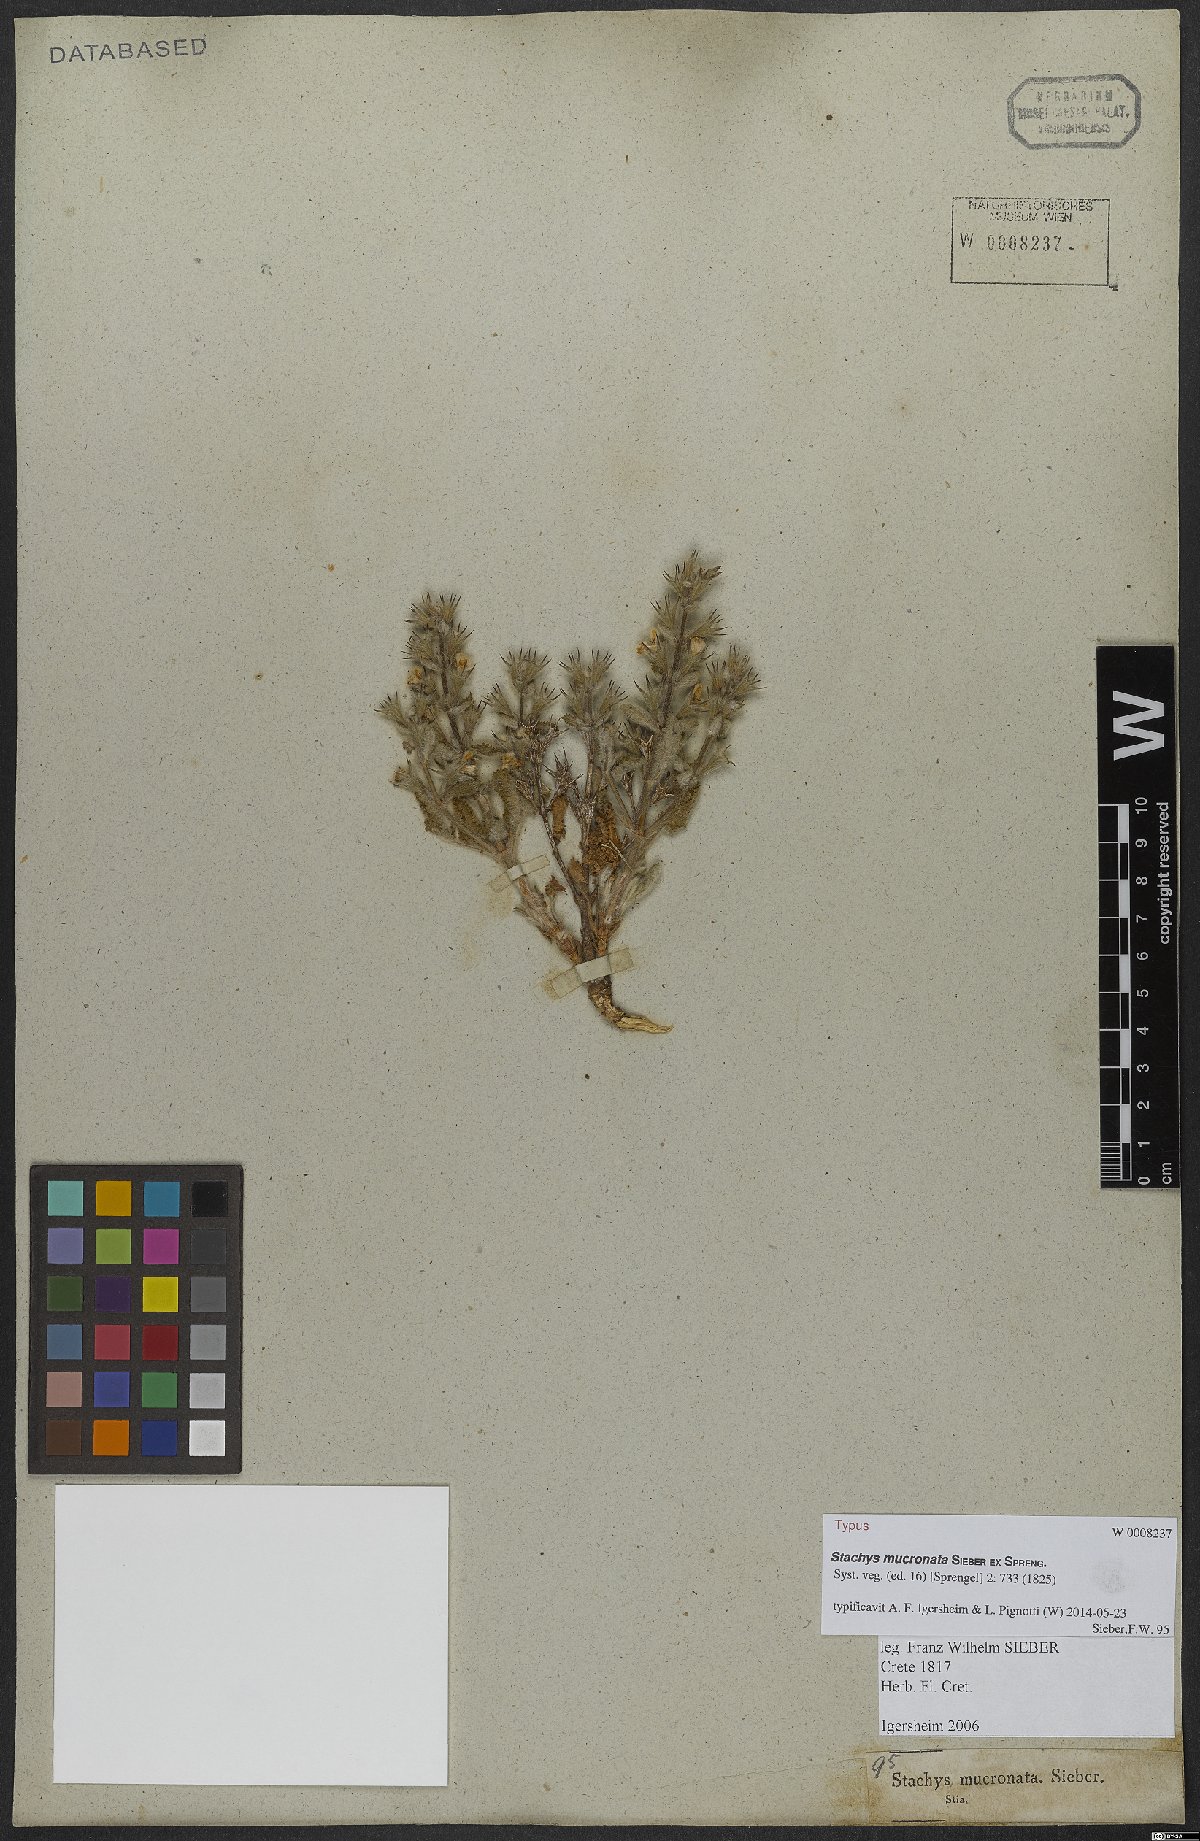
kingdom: Plantae
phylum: Tracheophyta
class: Magnoliopsida
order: Lamiales
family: Lamiaceae
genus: Stachys
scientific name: Stachys mucronata
